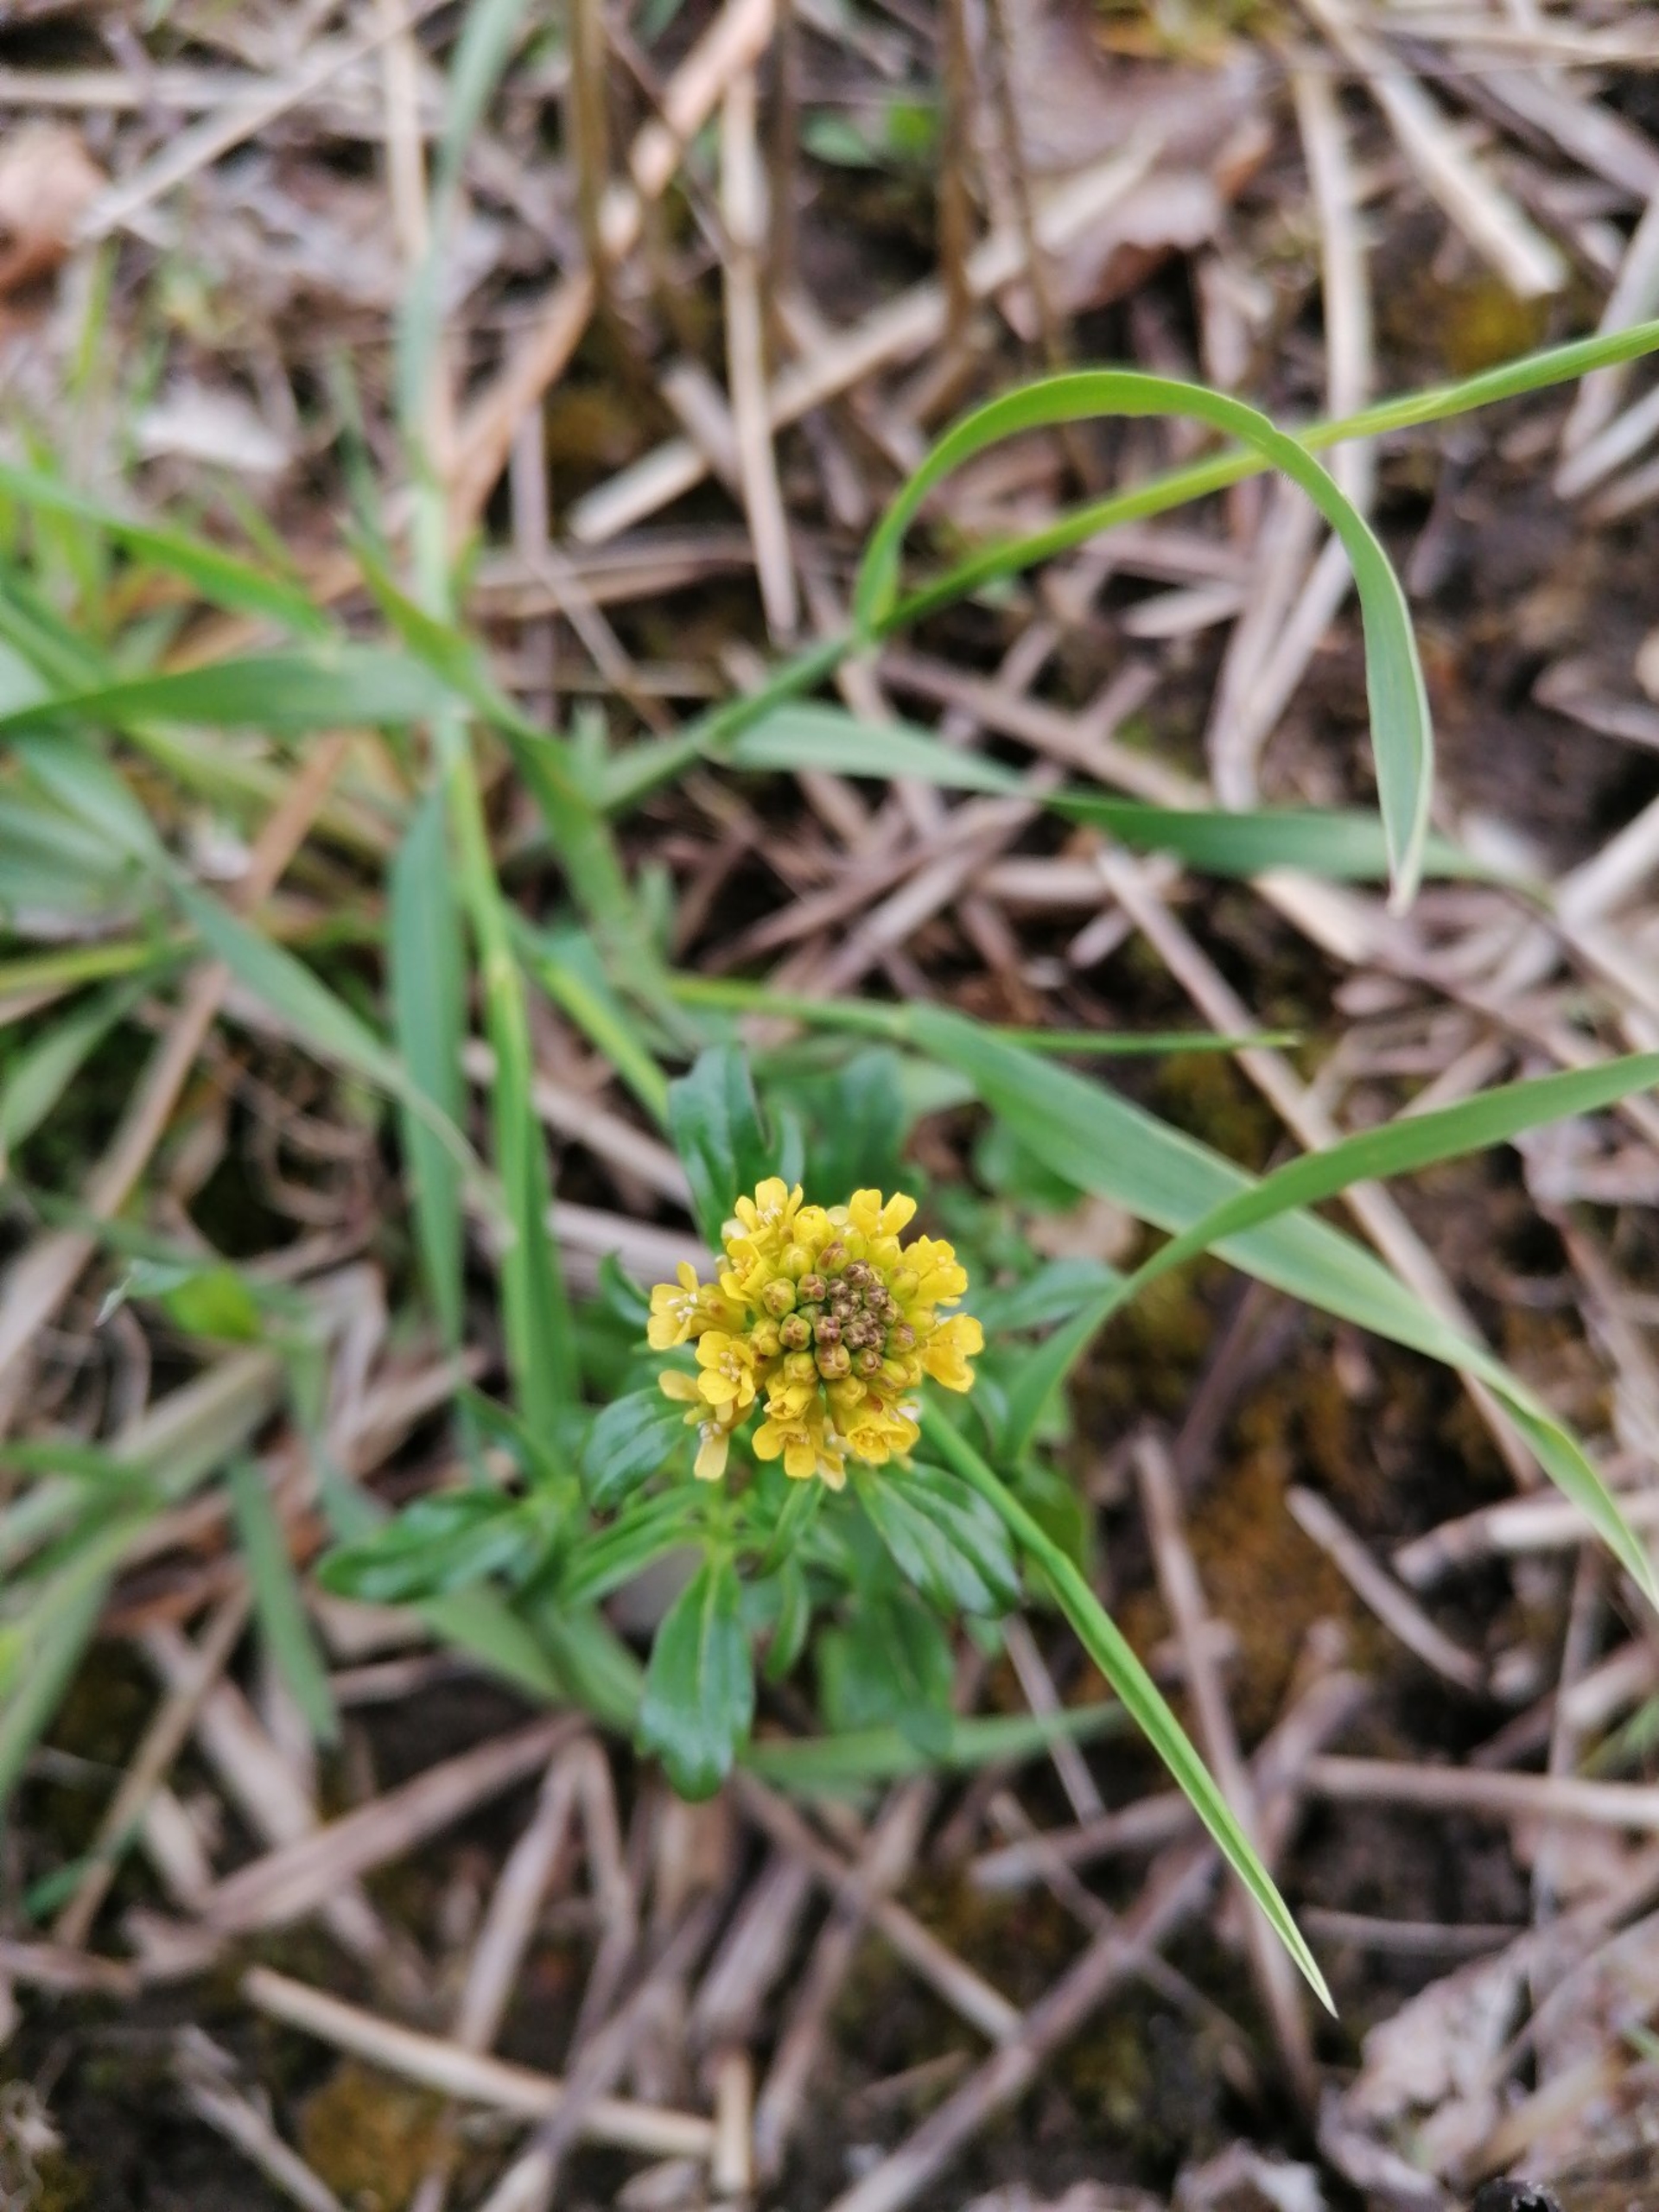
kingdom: Plantae
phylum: Tracheophyta
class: Magnoliopsida
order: Brassicales
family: Brassicaceae
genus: Barbarea
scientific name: Barbarea vulgaris
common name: Almindelig vinterkarse
